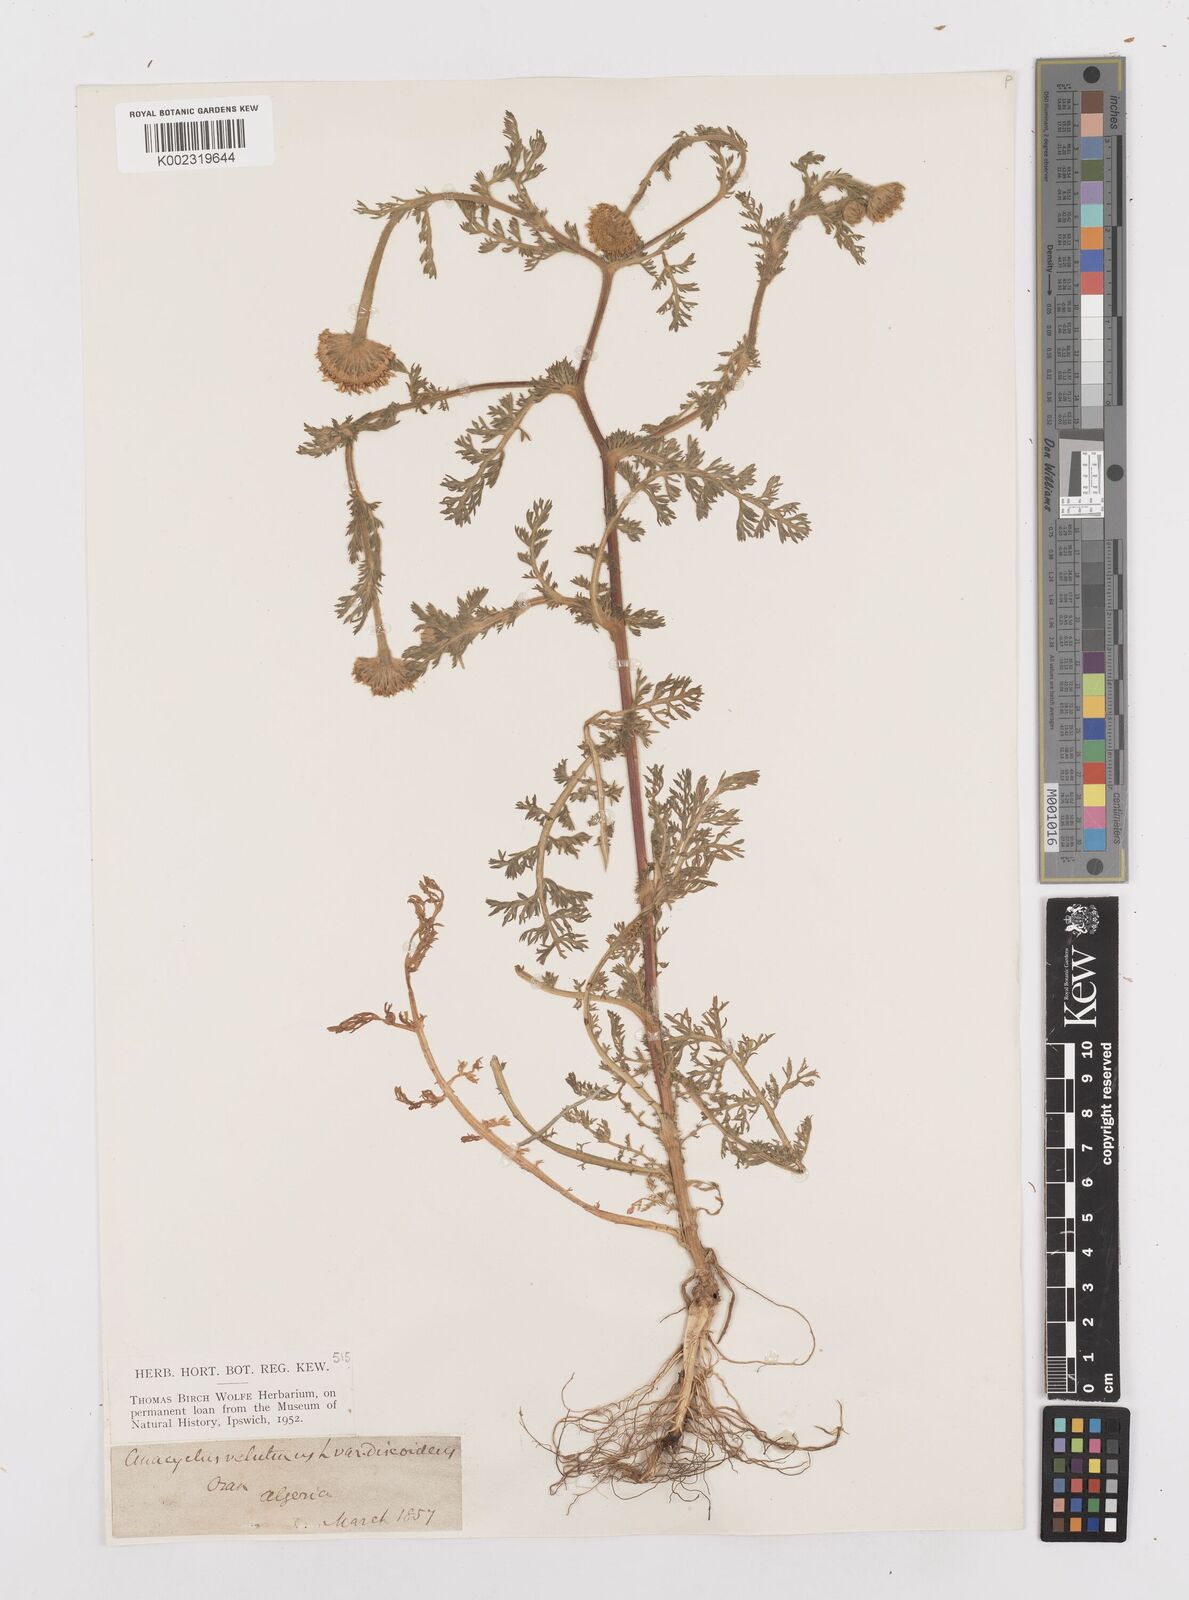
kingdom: Plantae
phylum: Tracheophyta
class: Magnoliopsida
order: Asterales
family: Asteraceae
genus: Anacyclus
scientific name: Anacyclus valentinus
